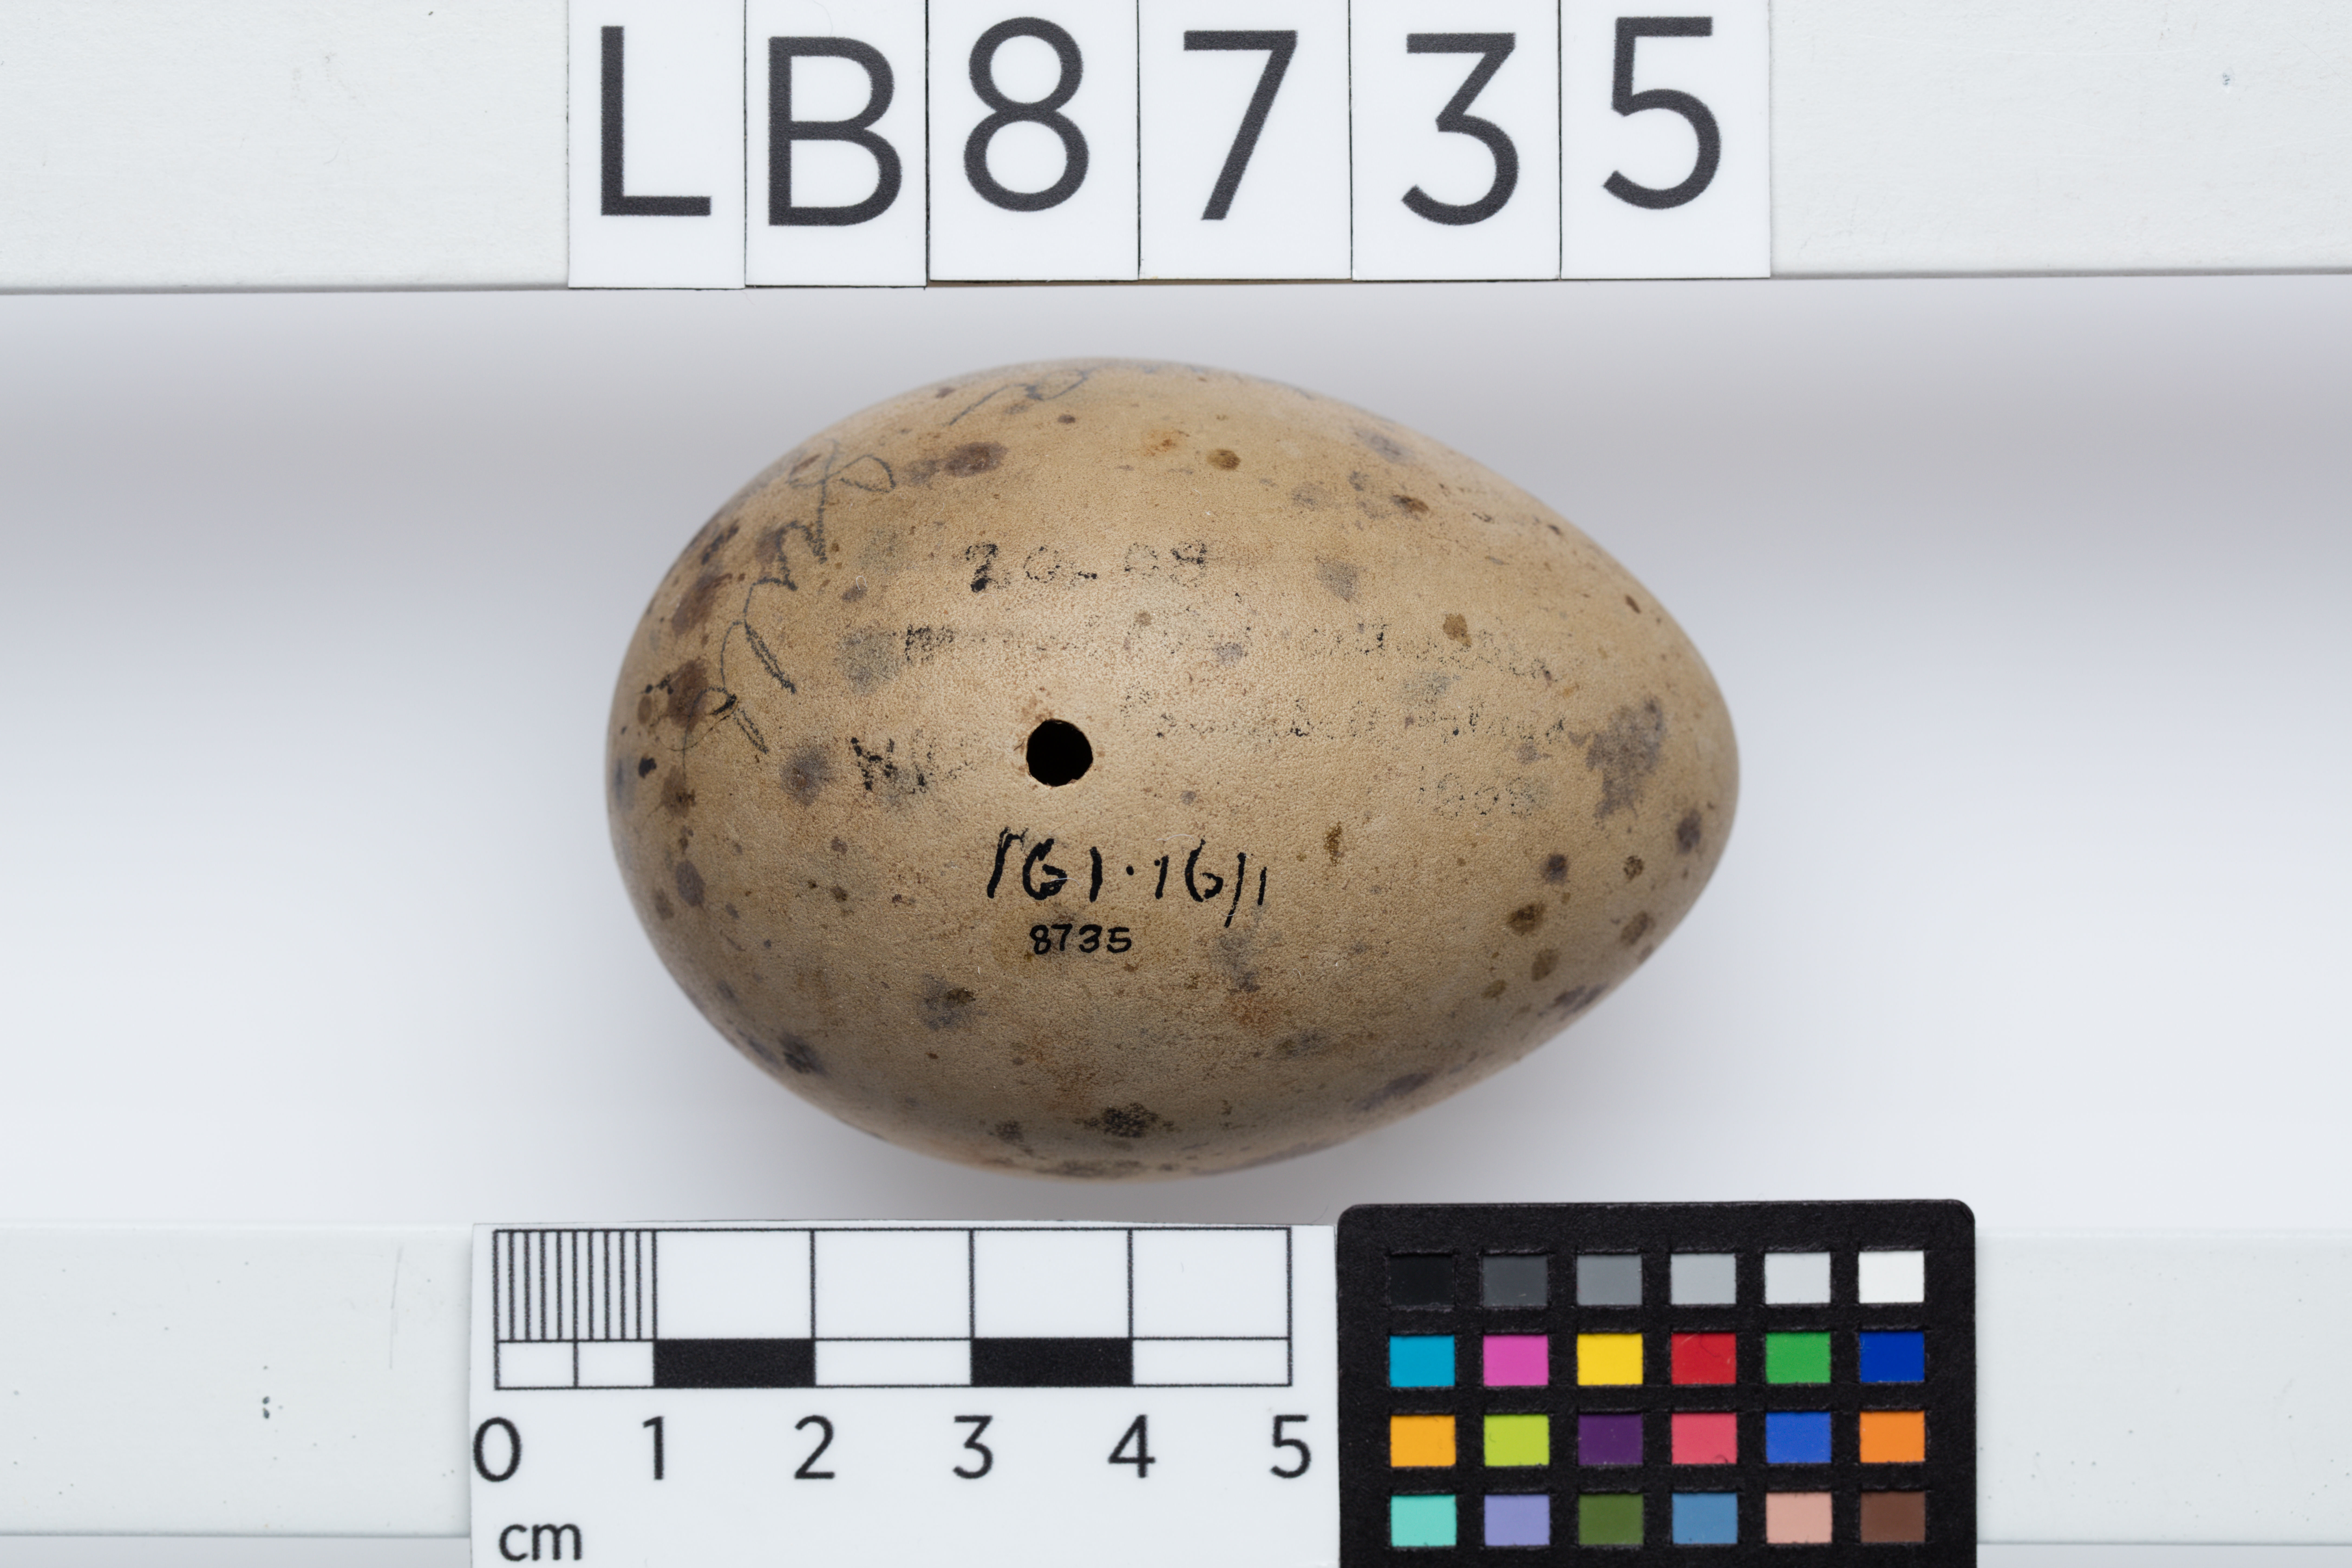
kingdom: Animalia
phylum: Chordata
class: Aves
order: Charadriiformes
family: Stercorariidae
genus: Stercorarius
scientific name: Stercorarius antarcticus
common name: Brown skua
